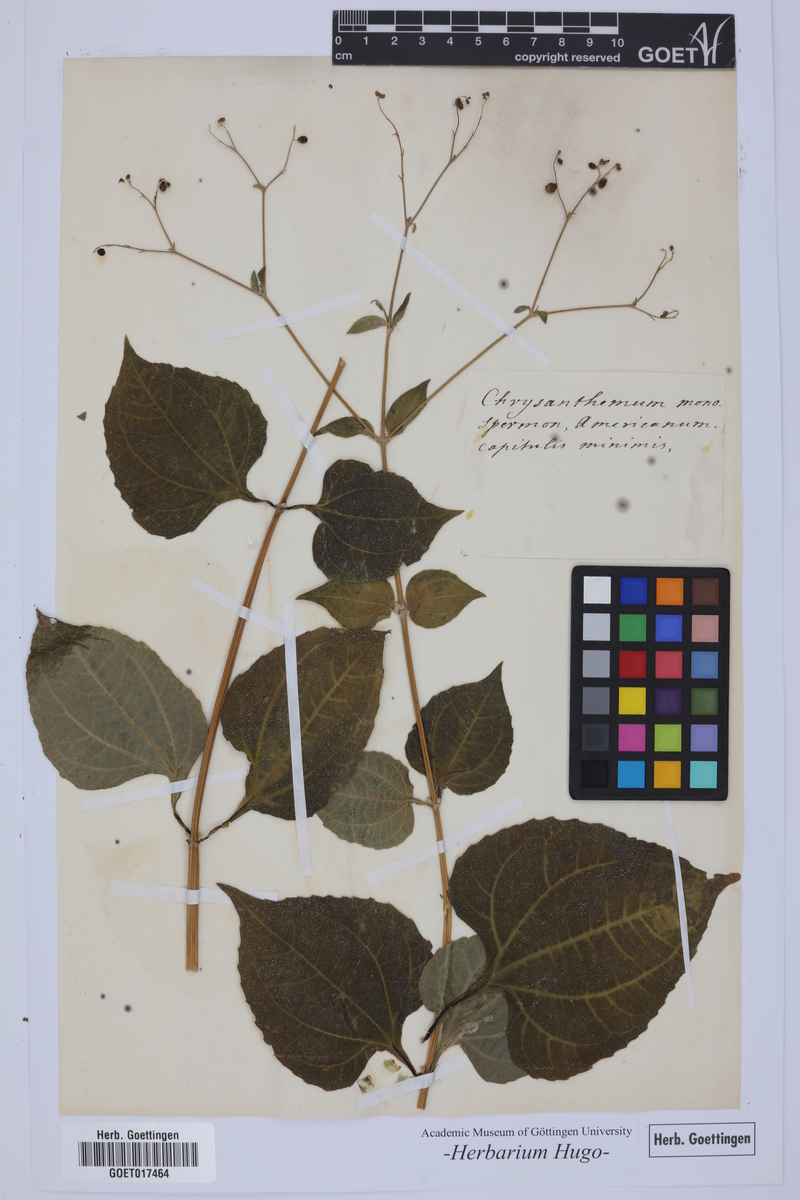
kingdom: Plantae
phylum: Tracheophyta
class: Magnoliopsida
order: Asterales
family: Asteraceae
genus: Chrysanthemum
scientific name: Chrysanthemum
